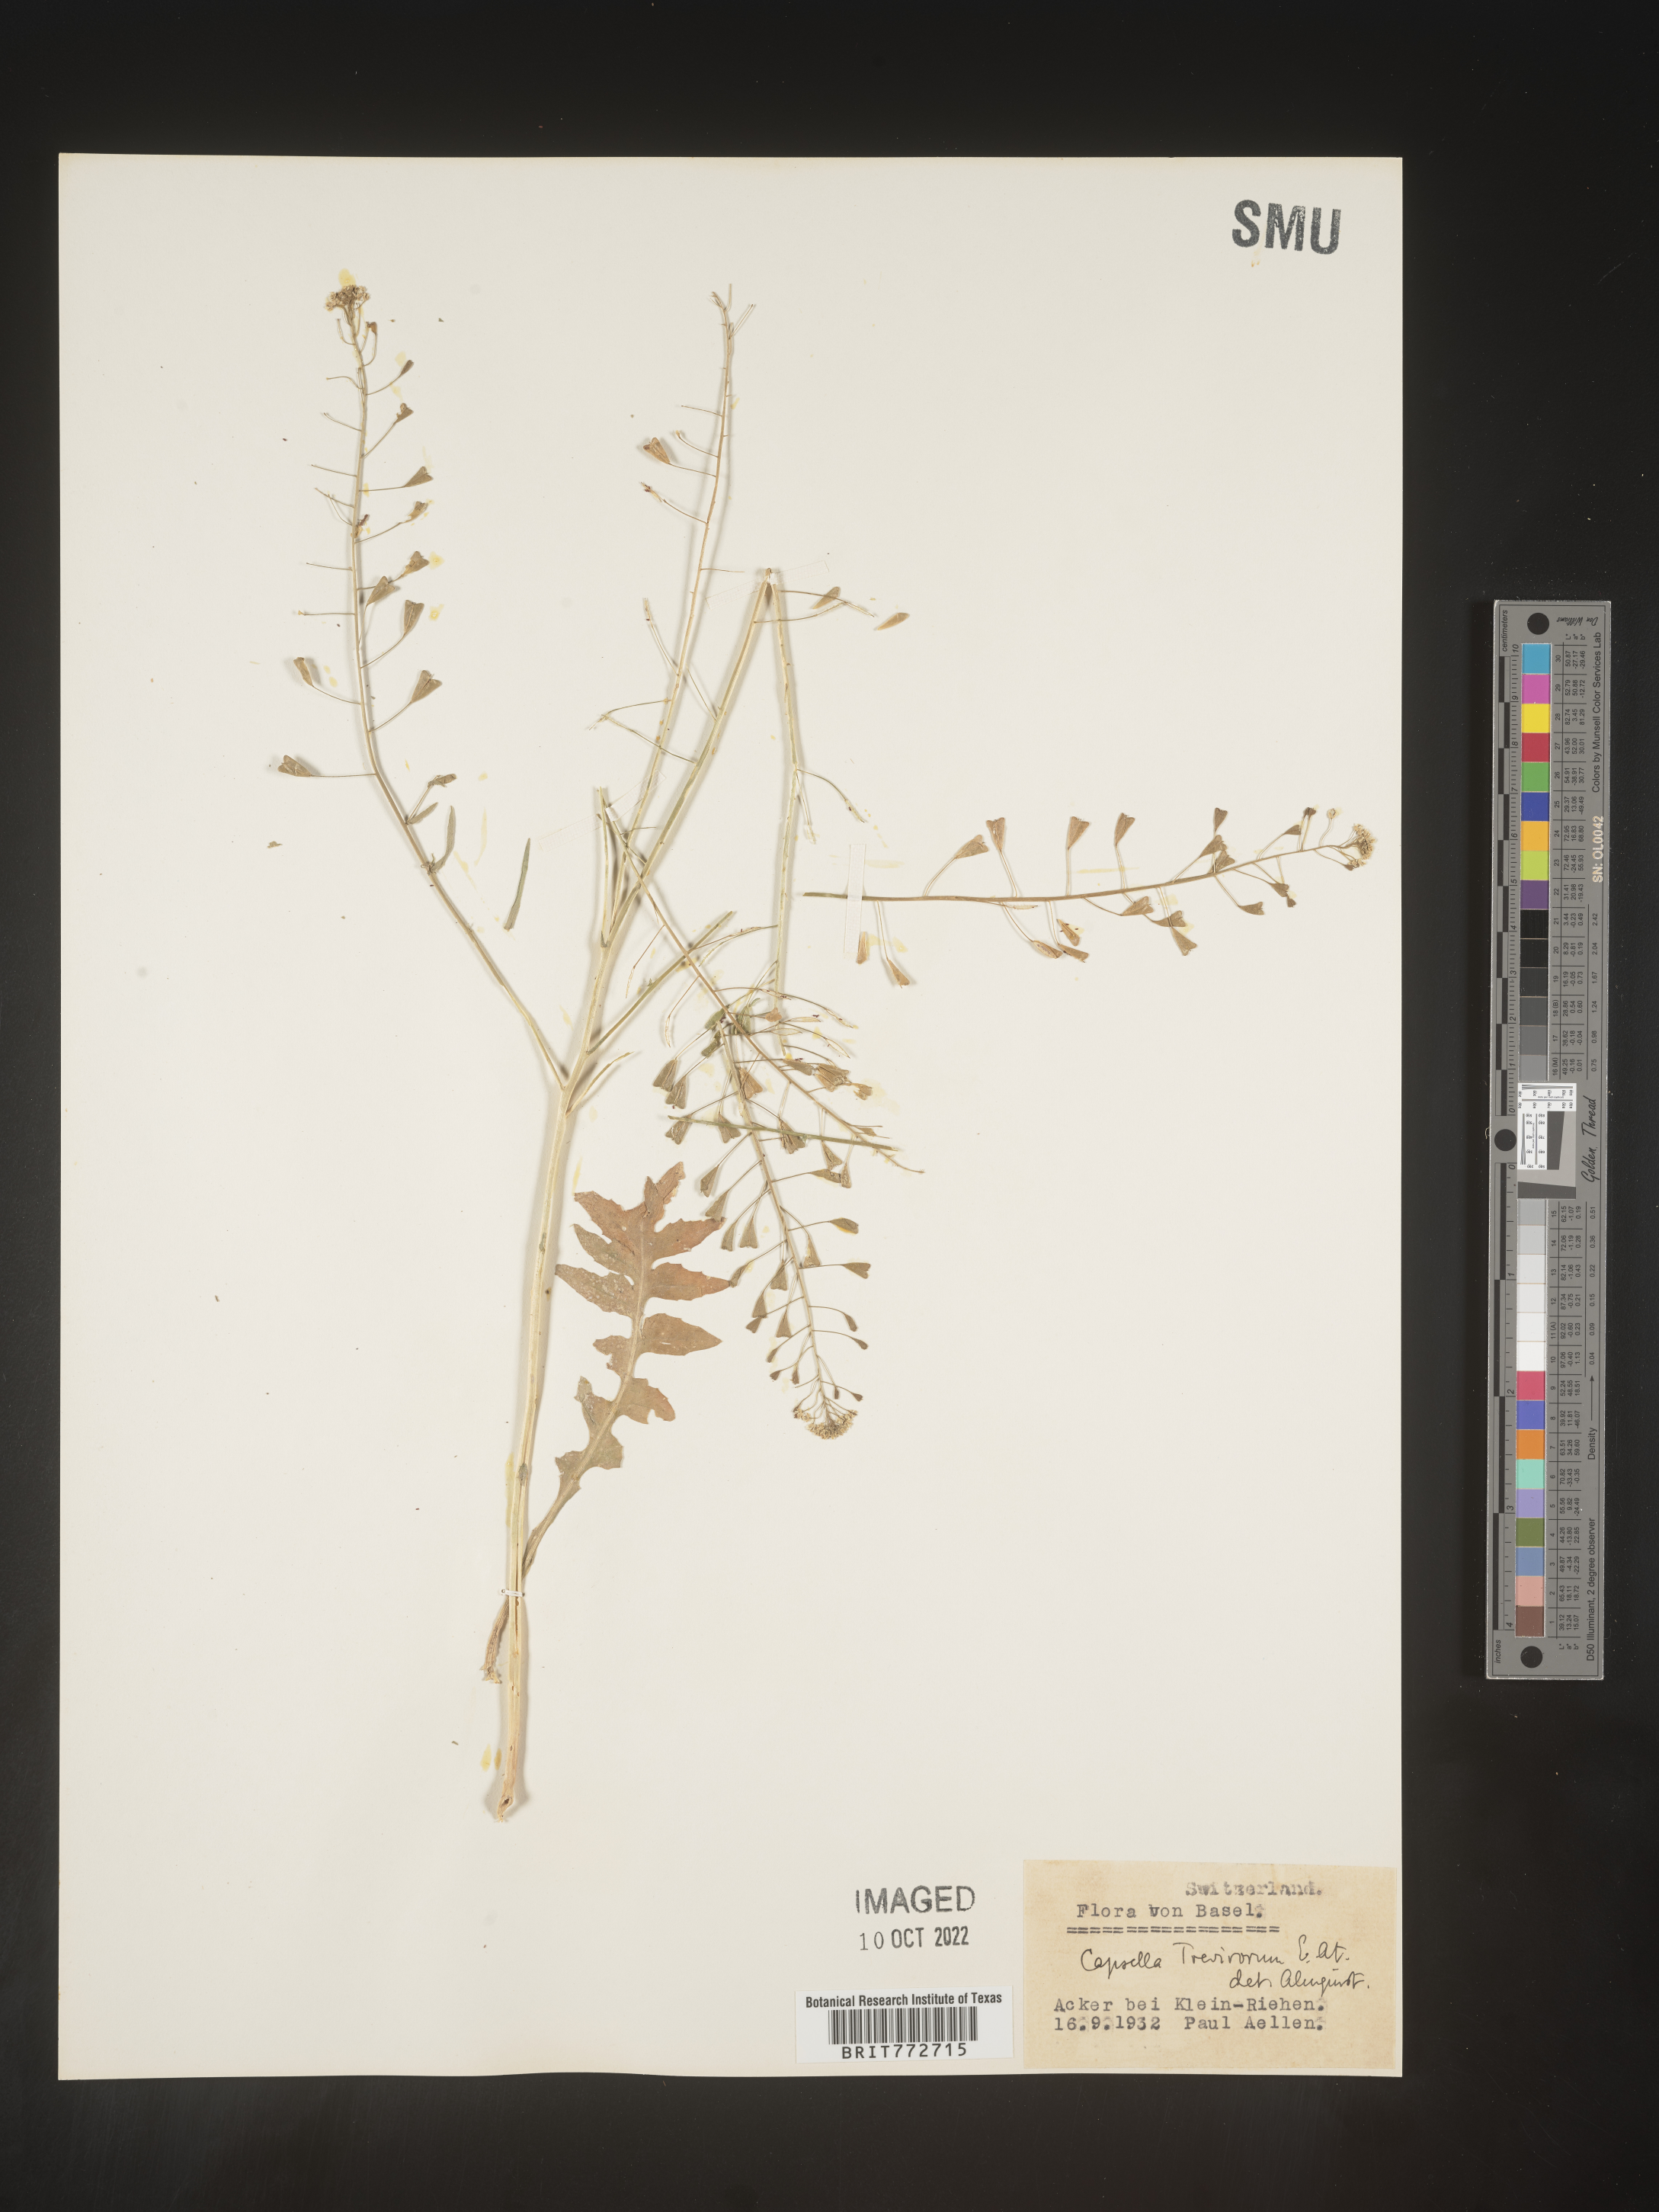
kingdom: Plantae
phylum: Tracheophyta
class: Magnoliopsida
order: Brassicales
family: Brassicaceae
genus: Capsella
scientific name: Capsella
